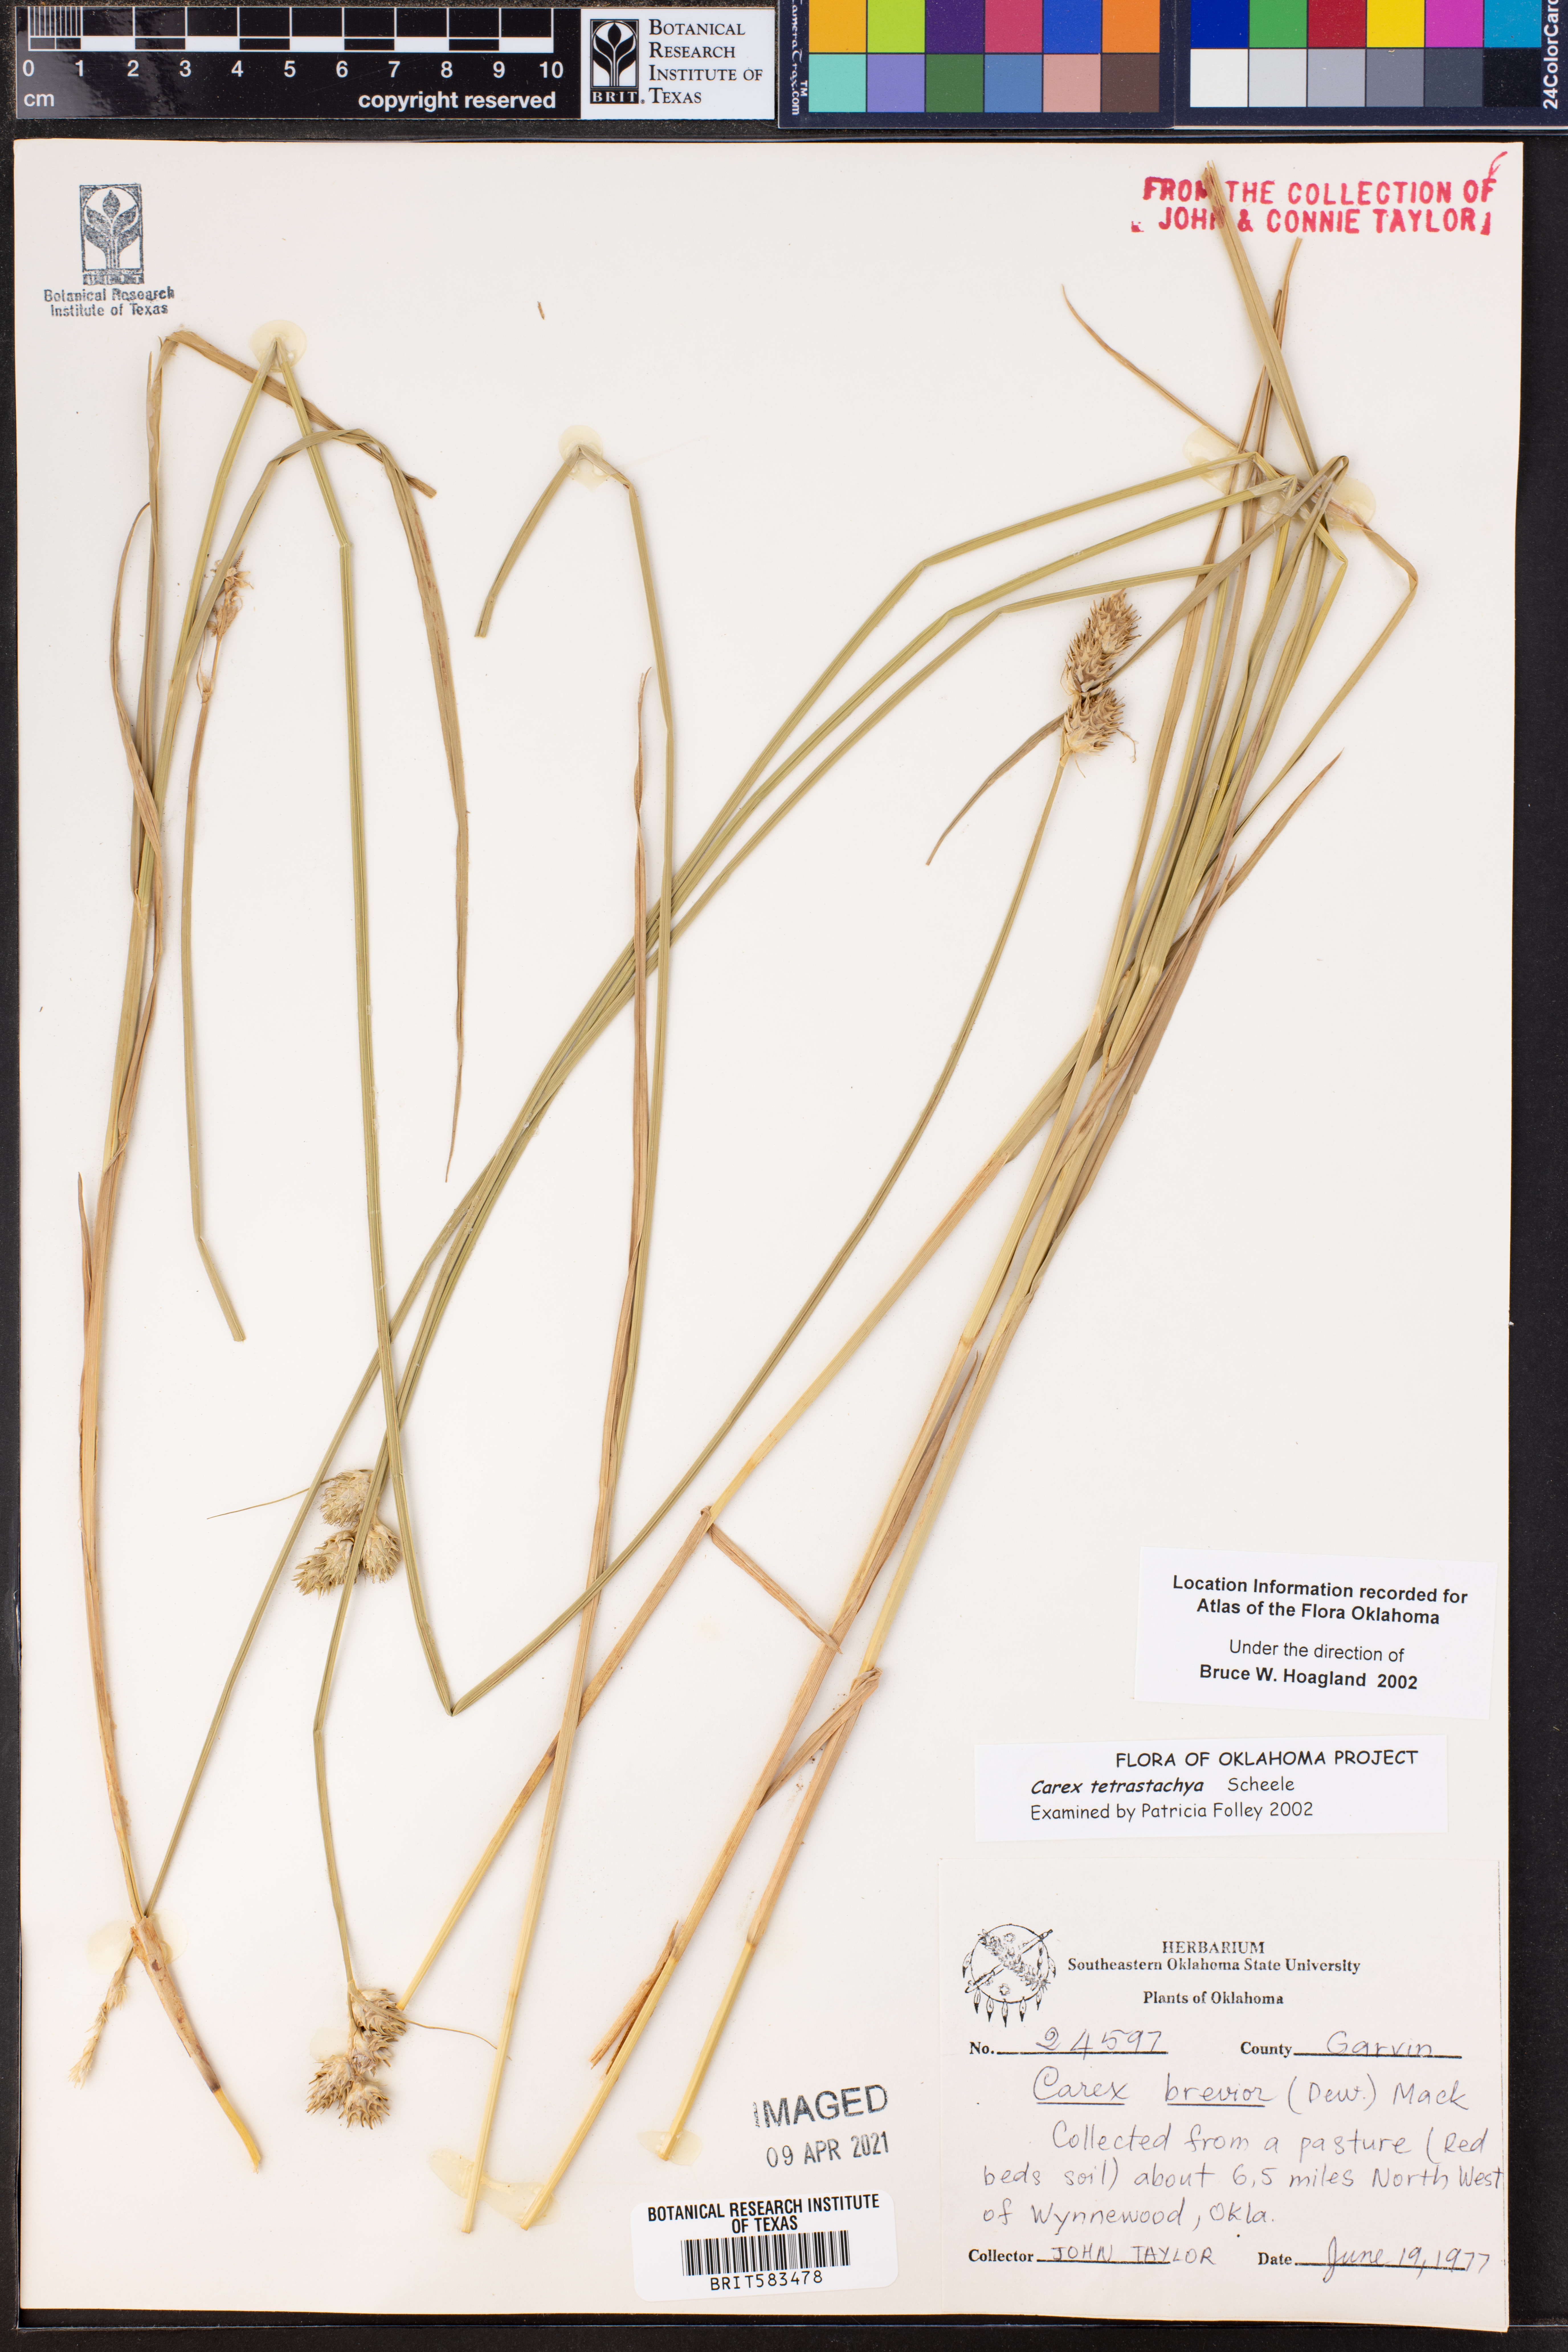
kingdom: Plantae
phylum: Tracheophyta
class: Liliopsida
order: Poales
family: Cyperaceae
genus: Carex
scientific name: Carex tetrastachya
